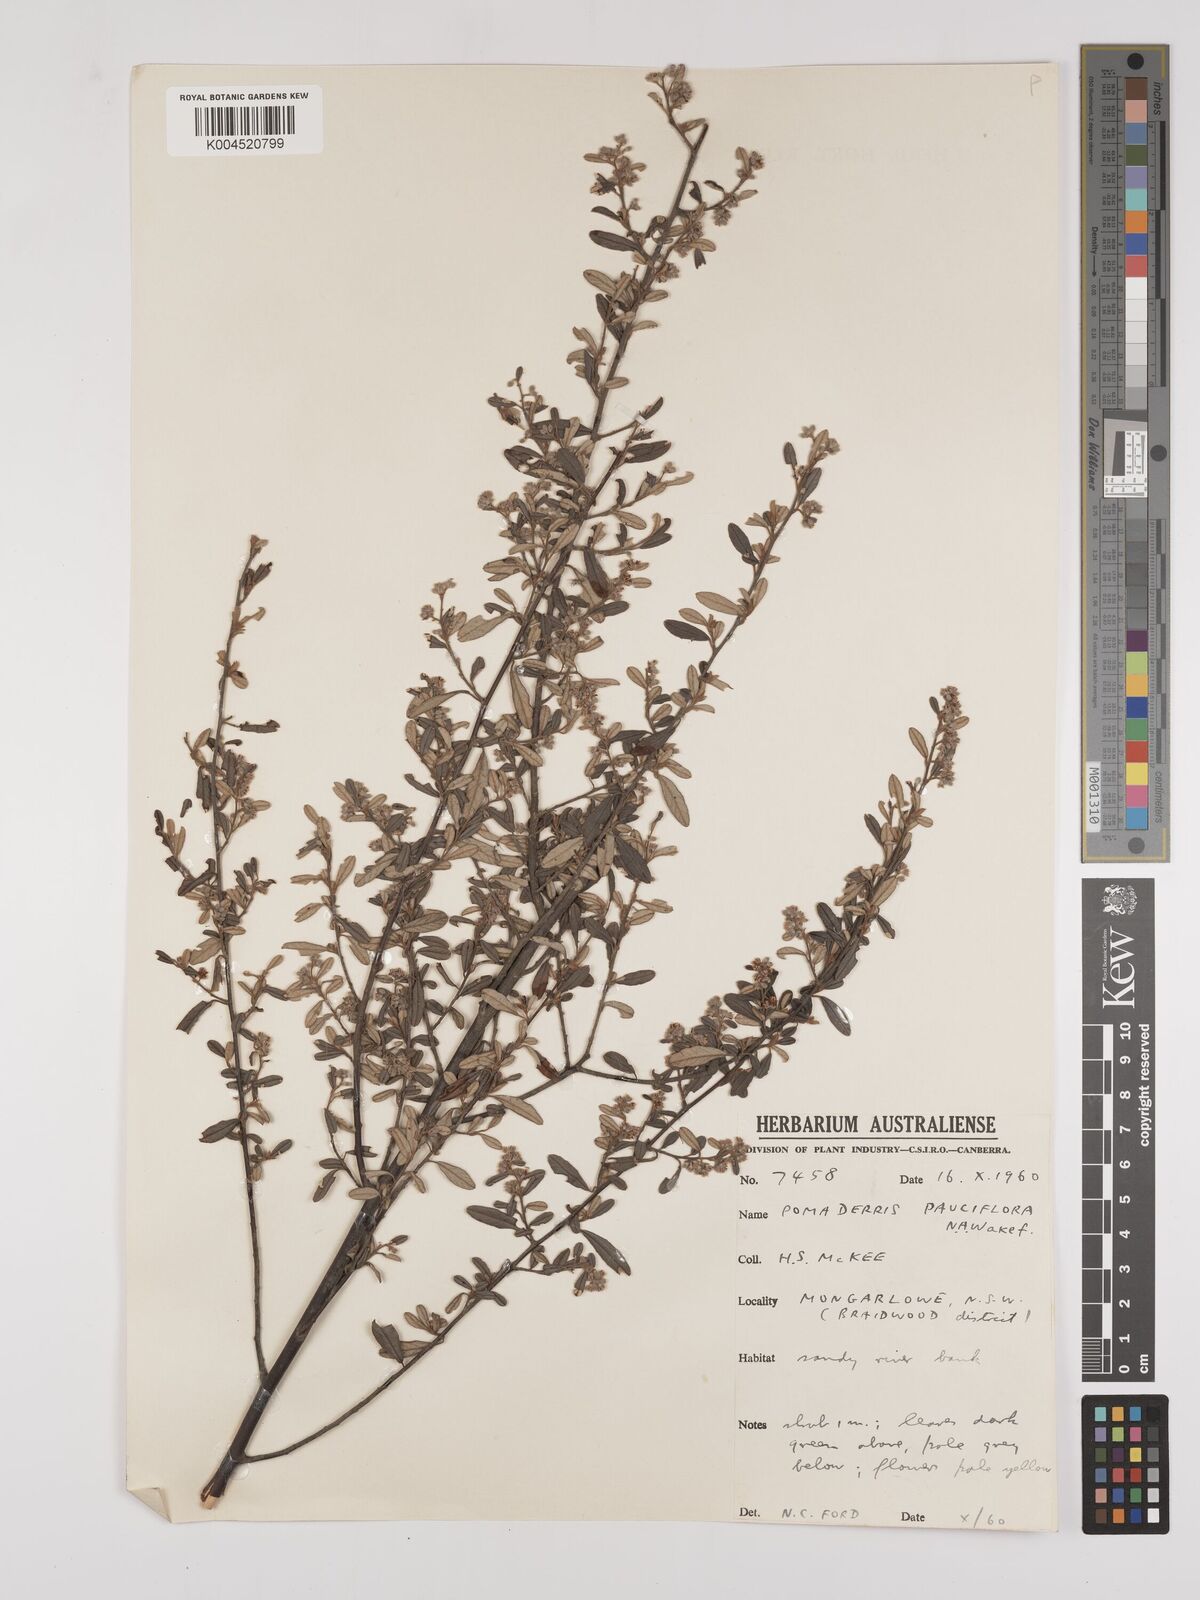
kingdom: Plantae
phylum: Tracheophyta
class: Magnoliopsida
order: Rosales
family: Rhamnaceae
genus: Pomaderris
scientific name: Pomaderris pauciflora
